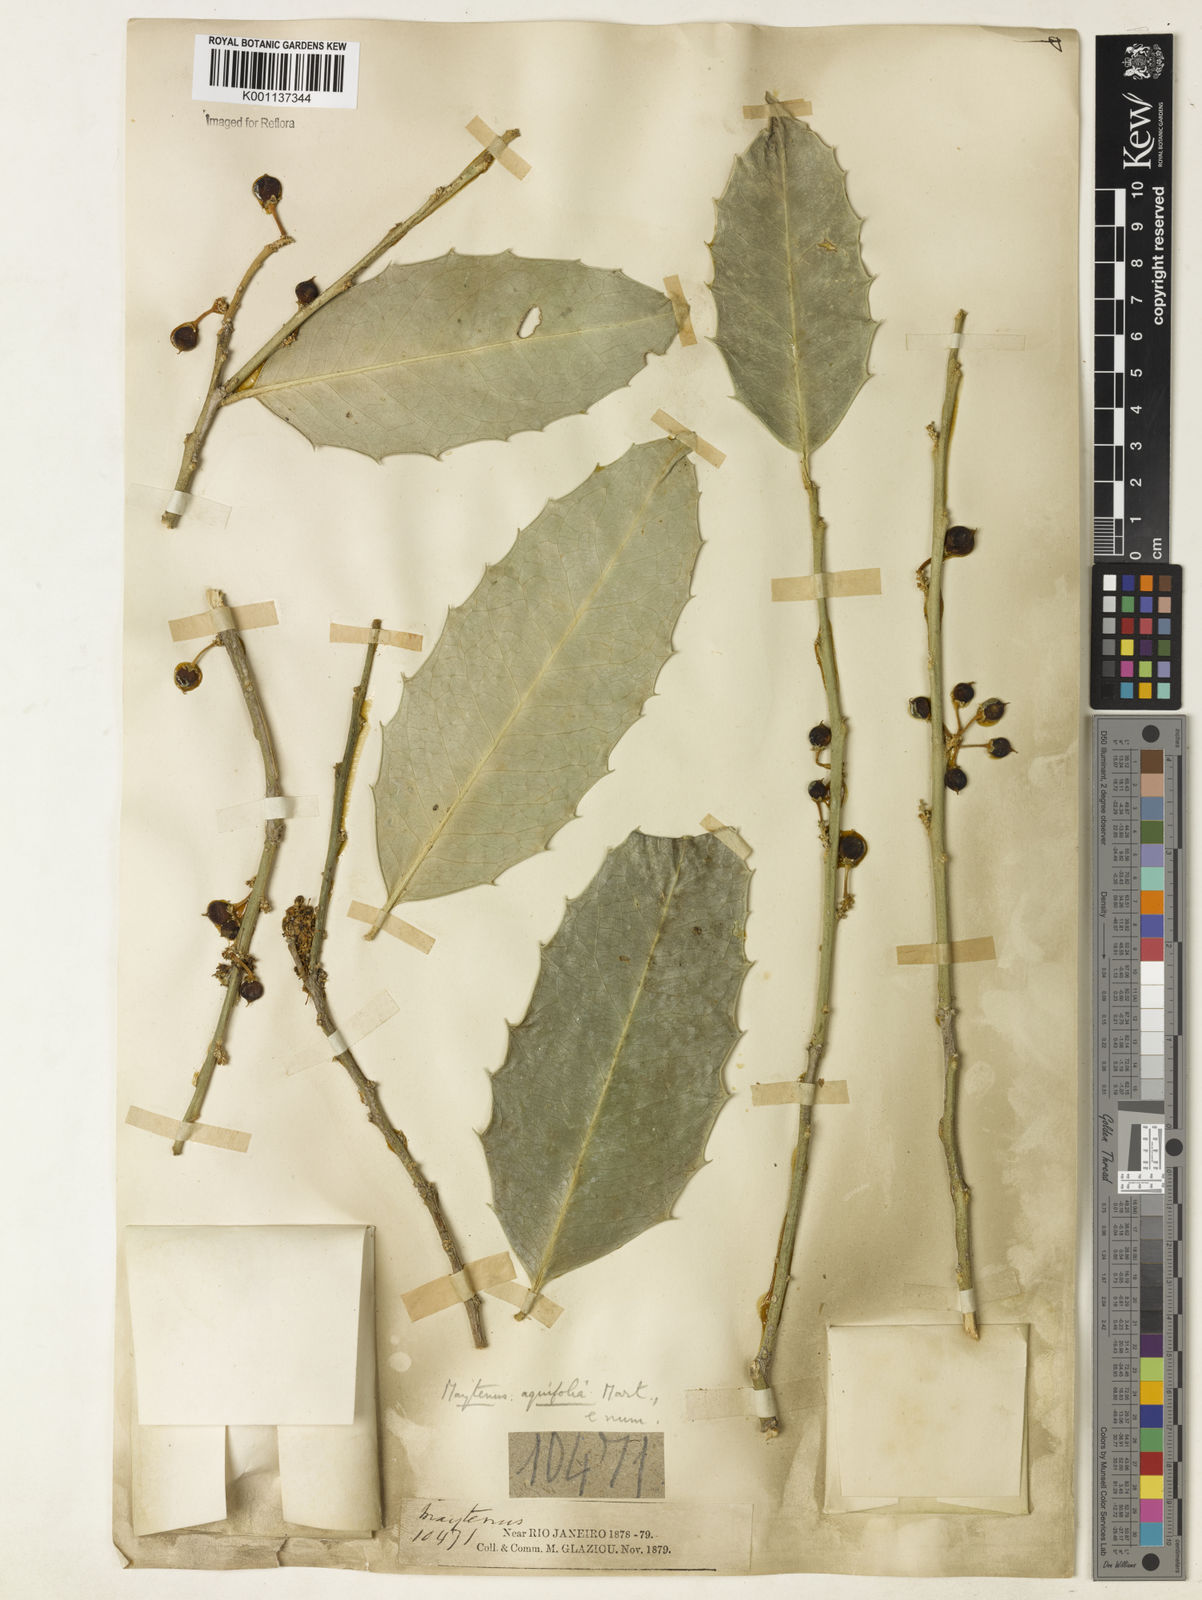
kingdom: Plantae
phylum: Tracheophyta
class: Magnoliopsida
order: Celastrales
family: Celastraceae
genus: Monteverdia
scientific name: Monteverdia aquifolium
